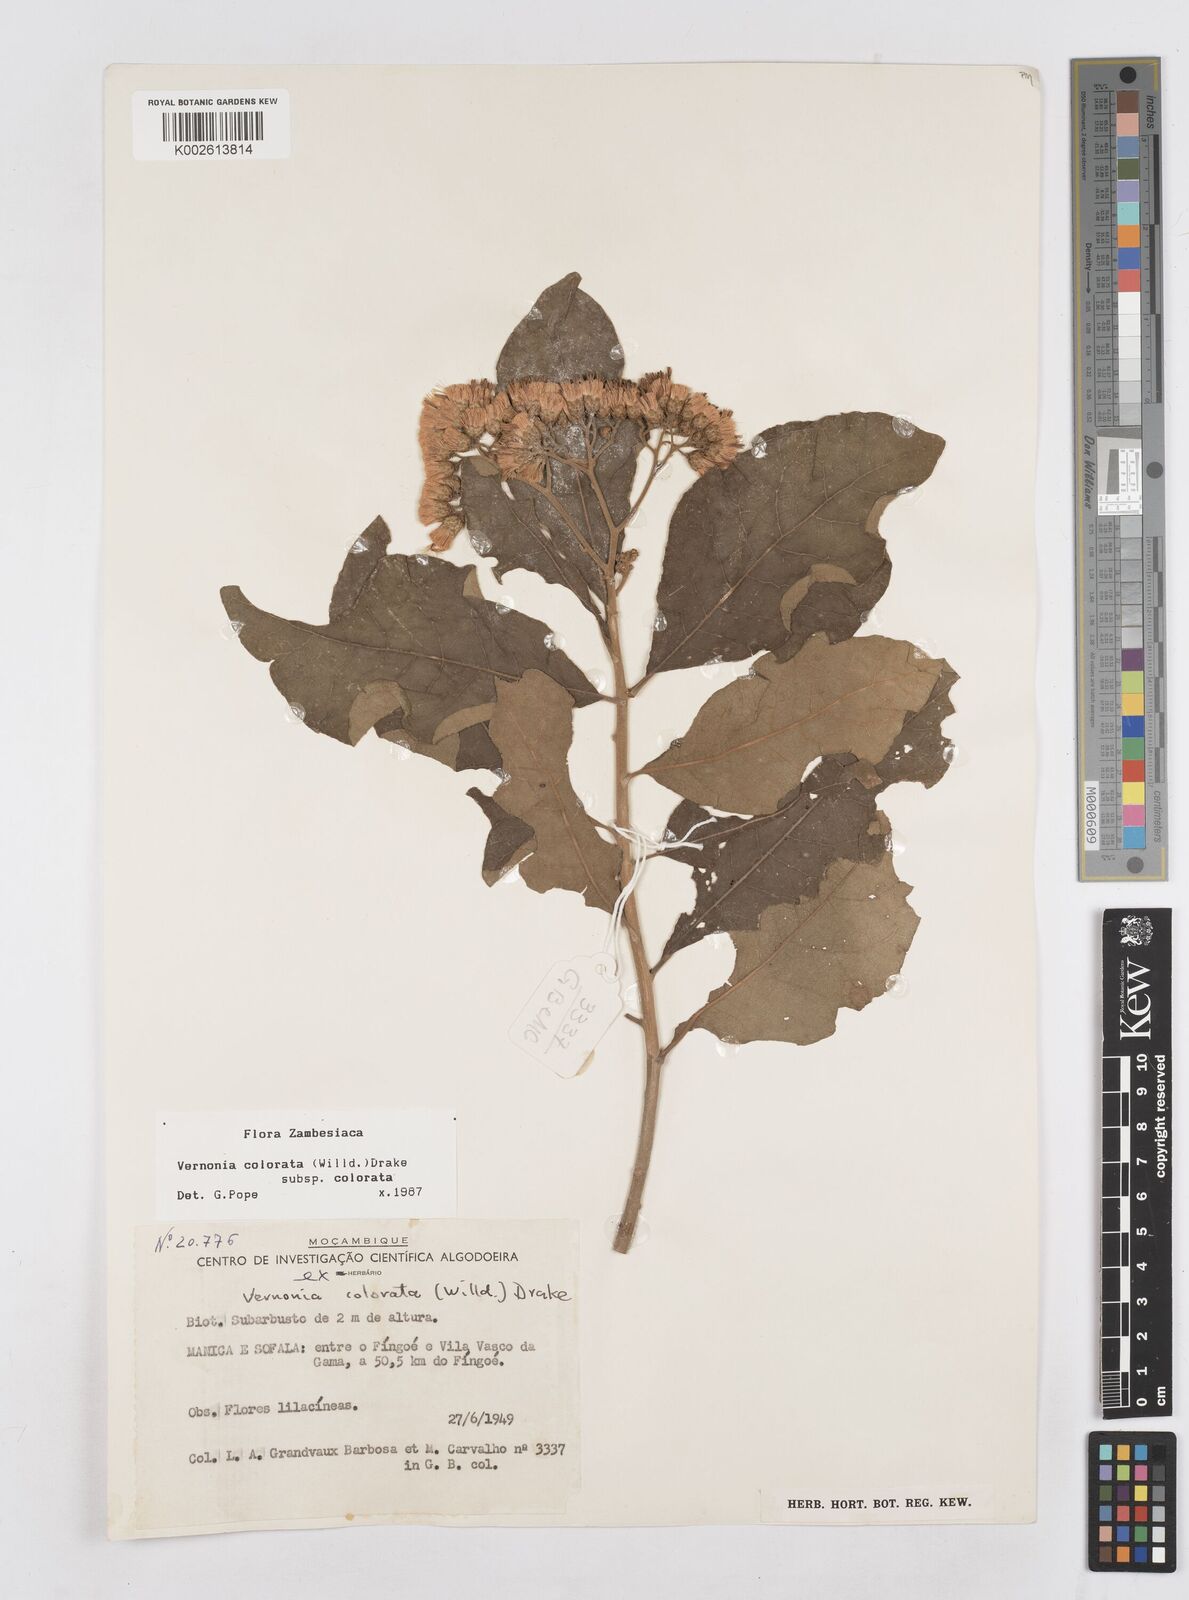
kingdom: Plantae
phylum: Tracheophyta
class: Magnoliopsida
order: Asterales
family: Asteraceae
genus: Vernonia
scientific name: Vernonia colorata
